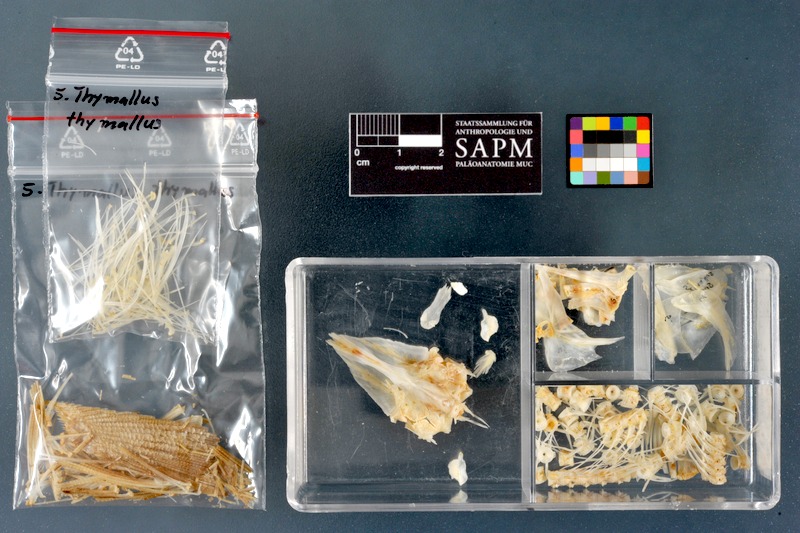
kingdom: Animalia
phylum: Chordata
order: Salmoniformes
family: Salmonidae
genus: Thymallus
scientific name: Thymallus thymallus
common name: Grayling
